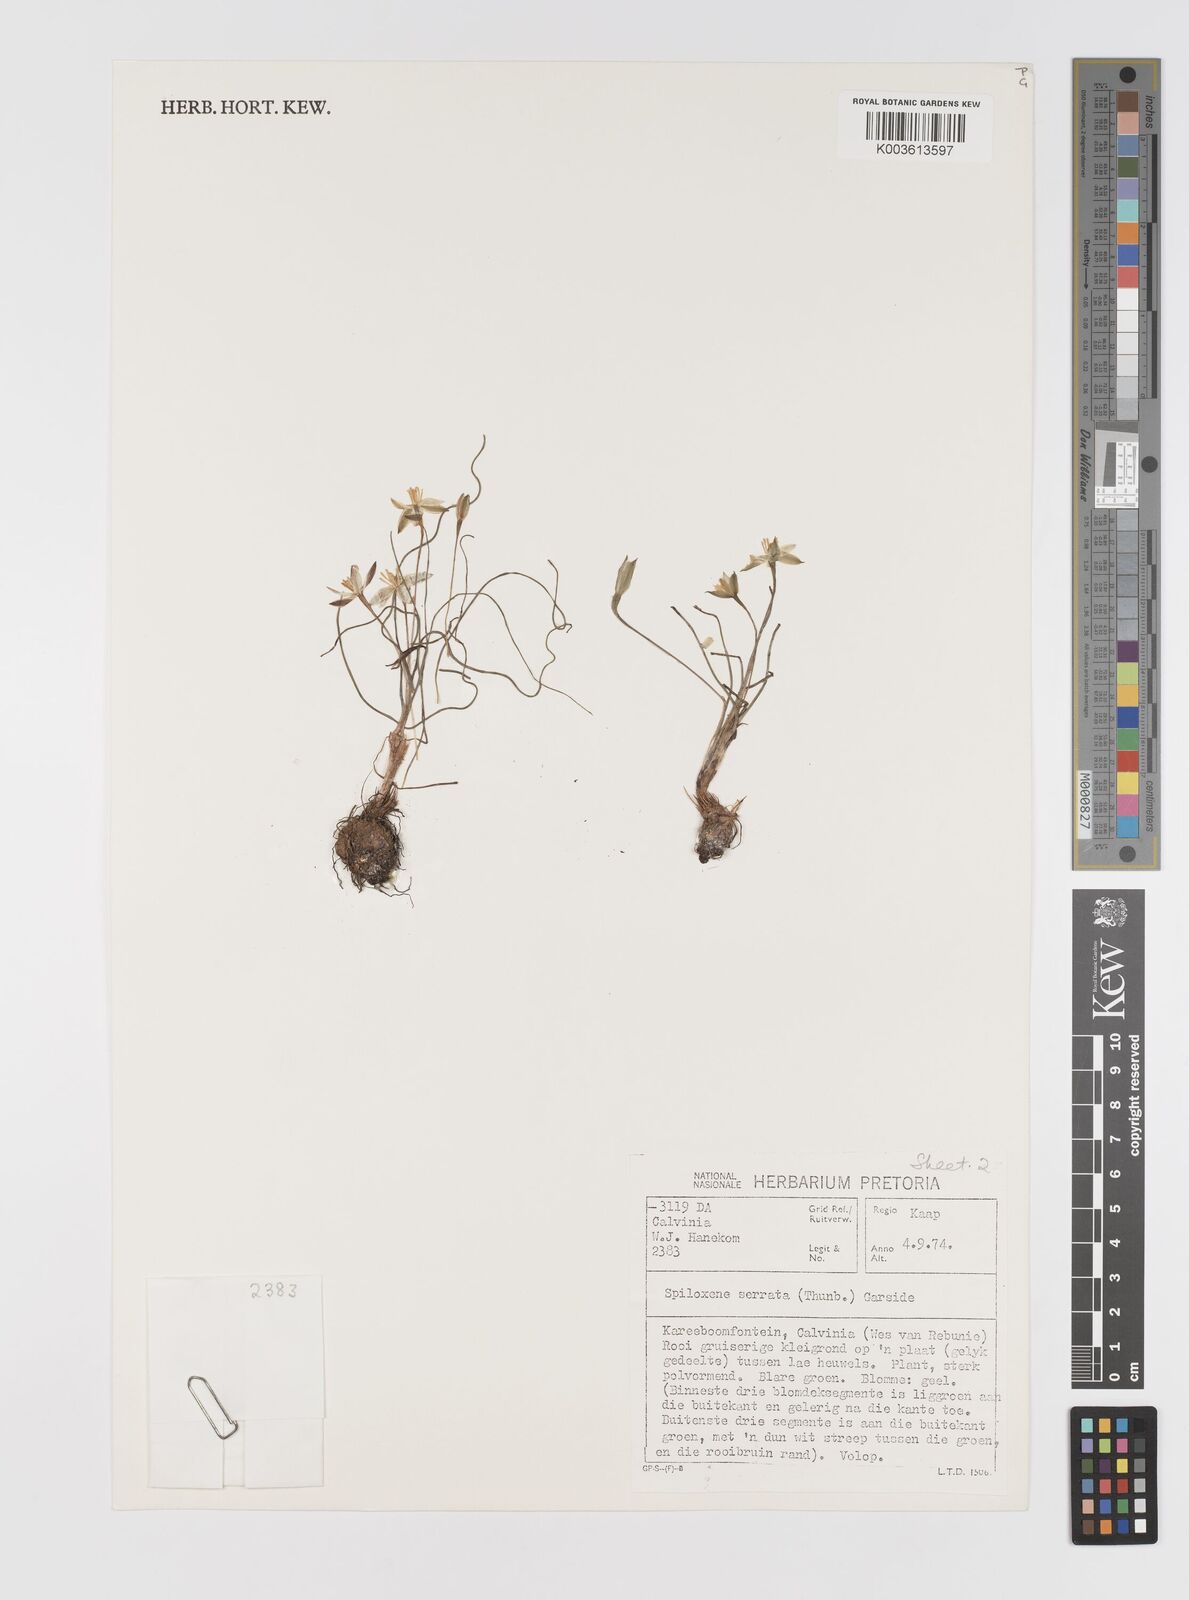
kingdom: Plantae
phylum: Tracheophyta
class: Liliopsida
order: Asparagales
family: Hypoxidaceae
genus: Pauridia
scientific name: Pauridia serrata
